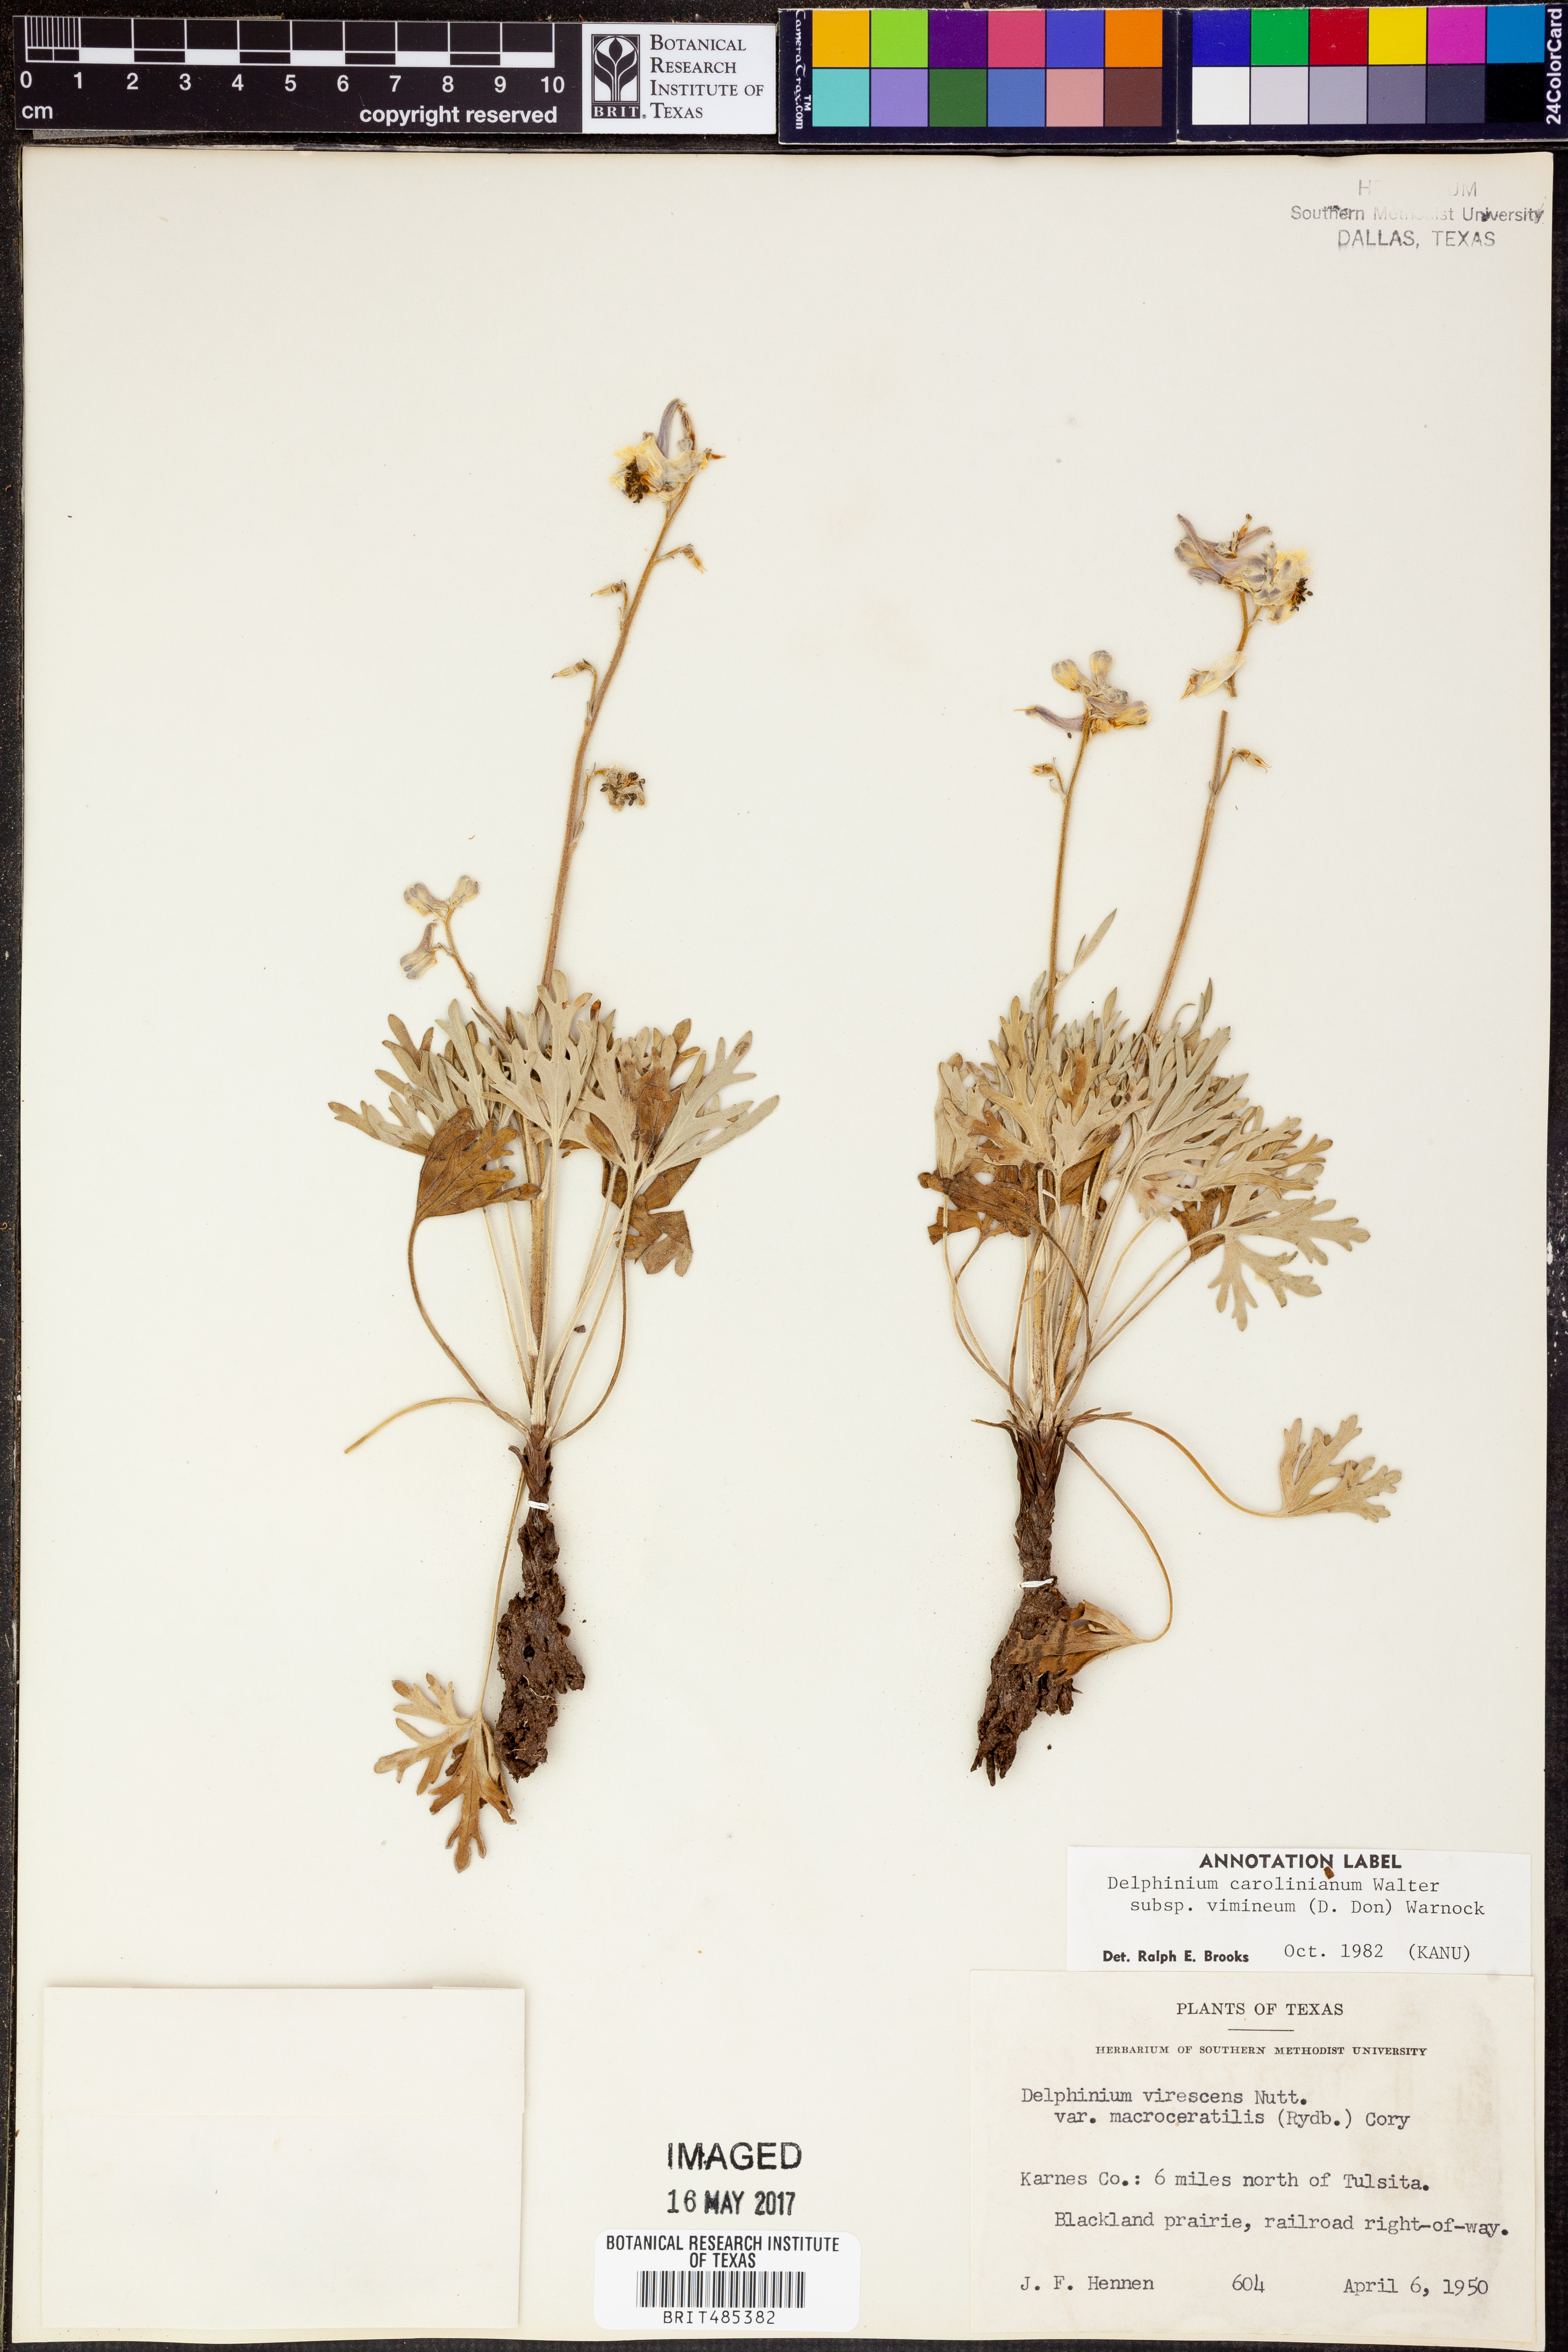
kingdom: Plantae
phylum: Tracheophyta
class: Magnoliopsida
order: Ranunculales
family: Ranunculaceae
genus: Delphinium
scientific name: Delphinium carolinianum
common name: Carolina larkspur
